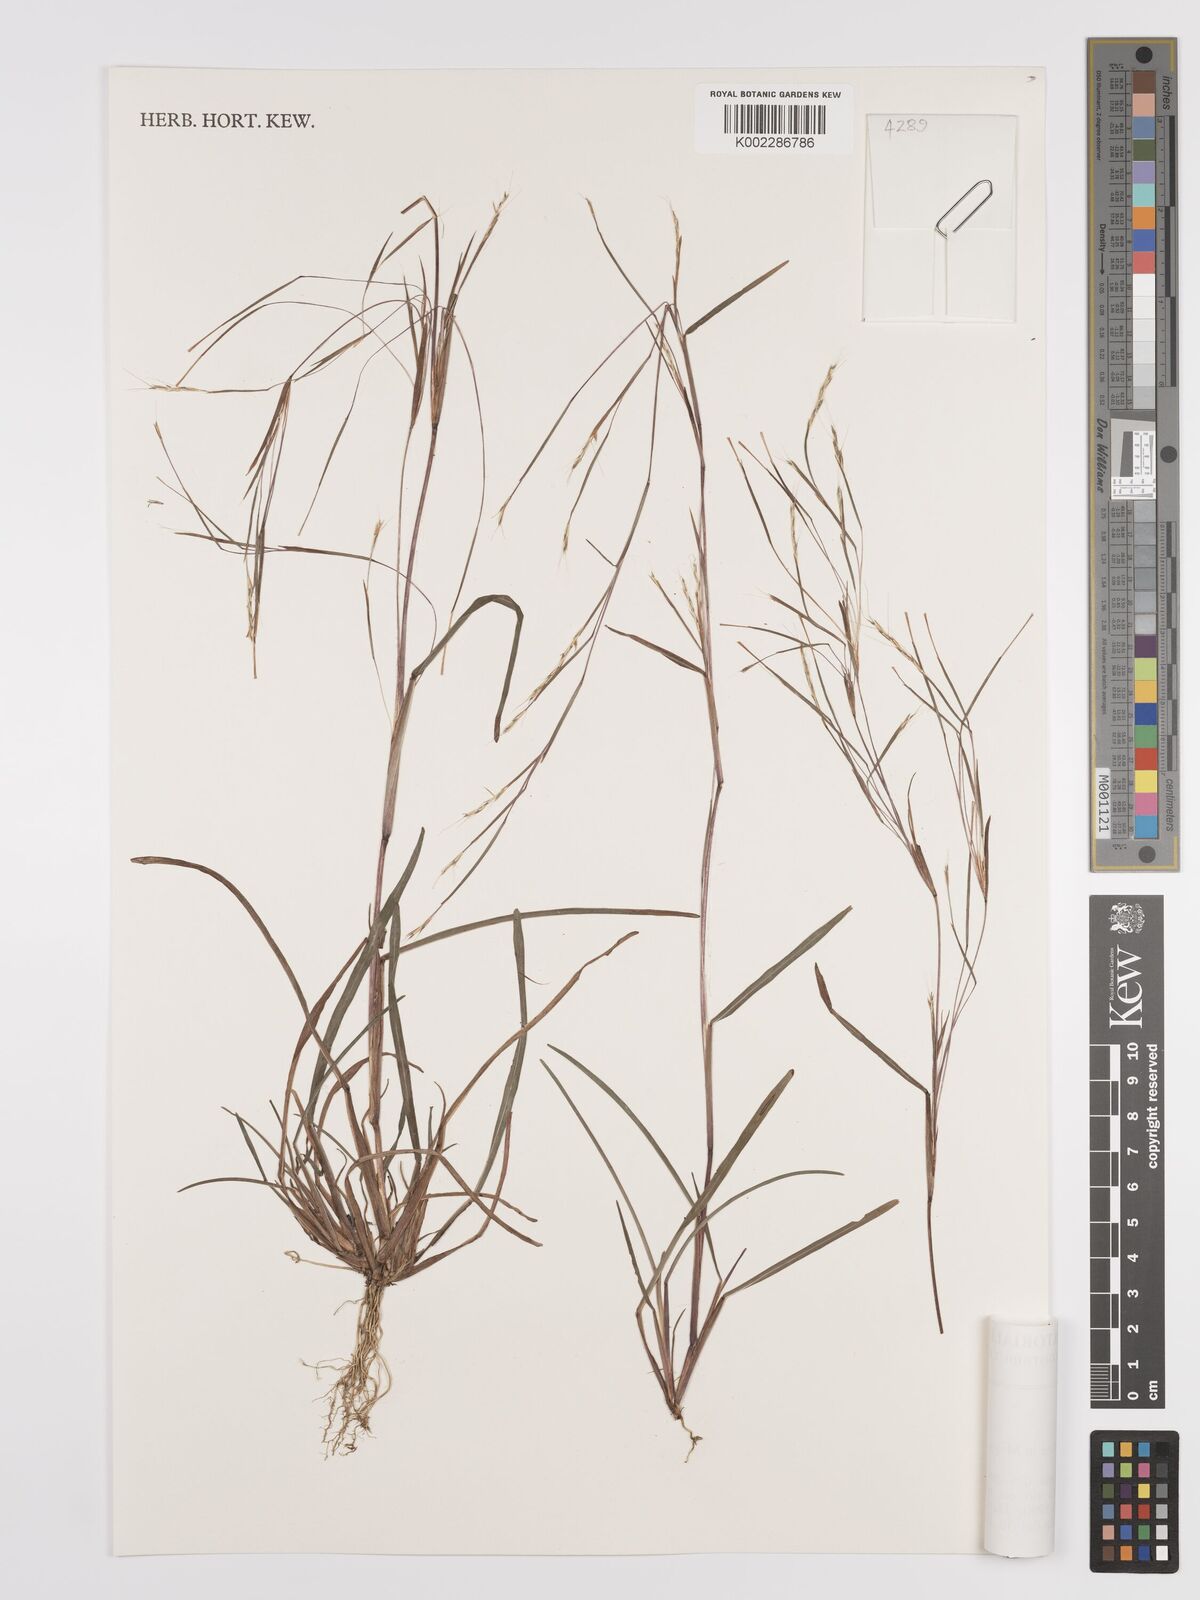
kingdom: Plantae
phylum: Tracheophyta
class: Liliopsida
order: Poales
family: Poaceae
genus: Schizachyrium
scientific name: Schizachyrium brevifolium
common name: Serillo dulce
